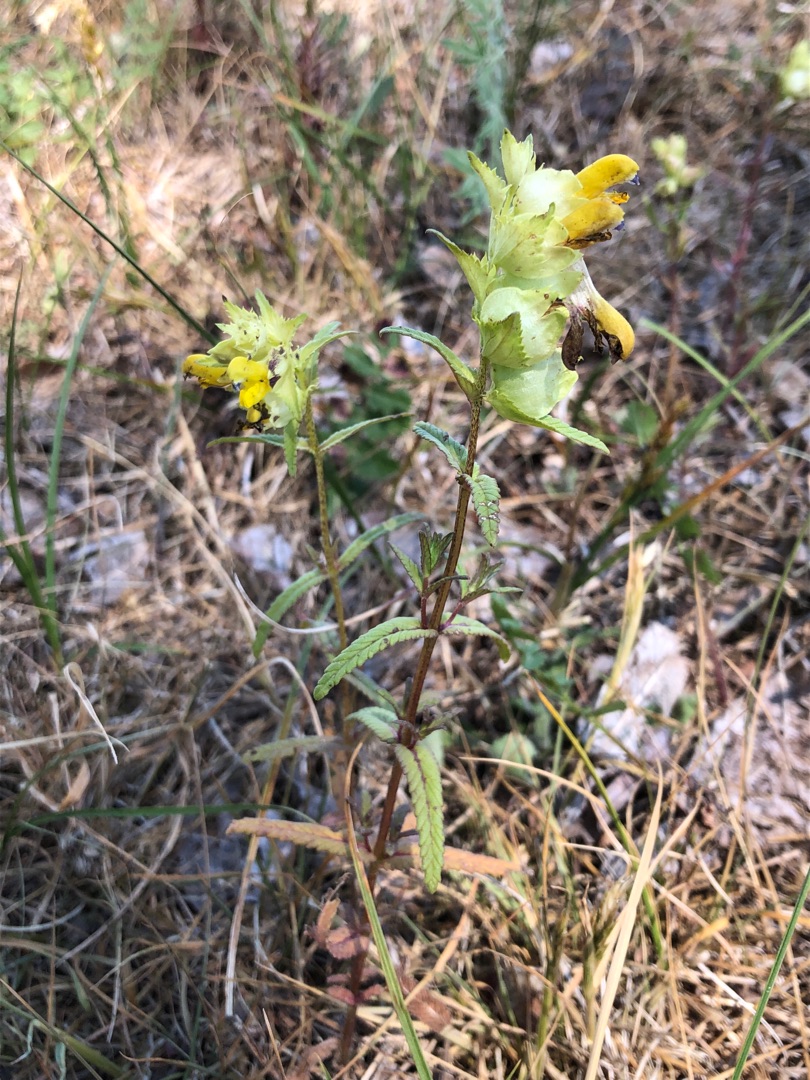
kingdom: Plantae
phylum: Tracheophyta
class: Magnoliopsida
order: Lamiales
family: Orobanchaceae
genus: Rhinanthus
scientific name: Rhinanthus
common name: Stor skjaller
